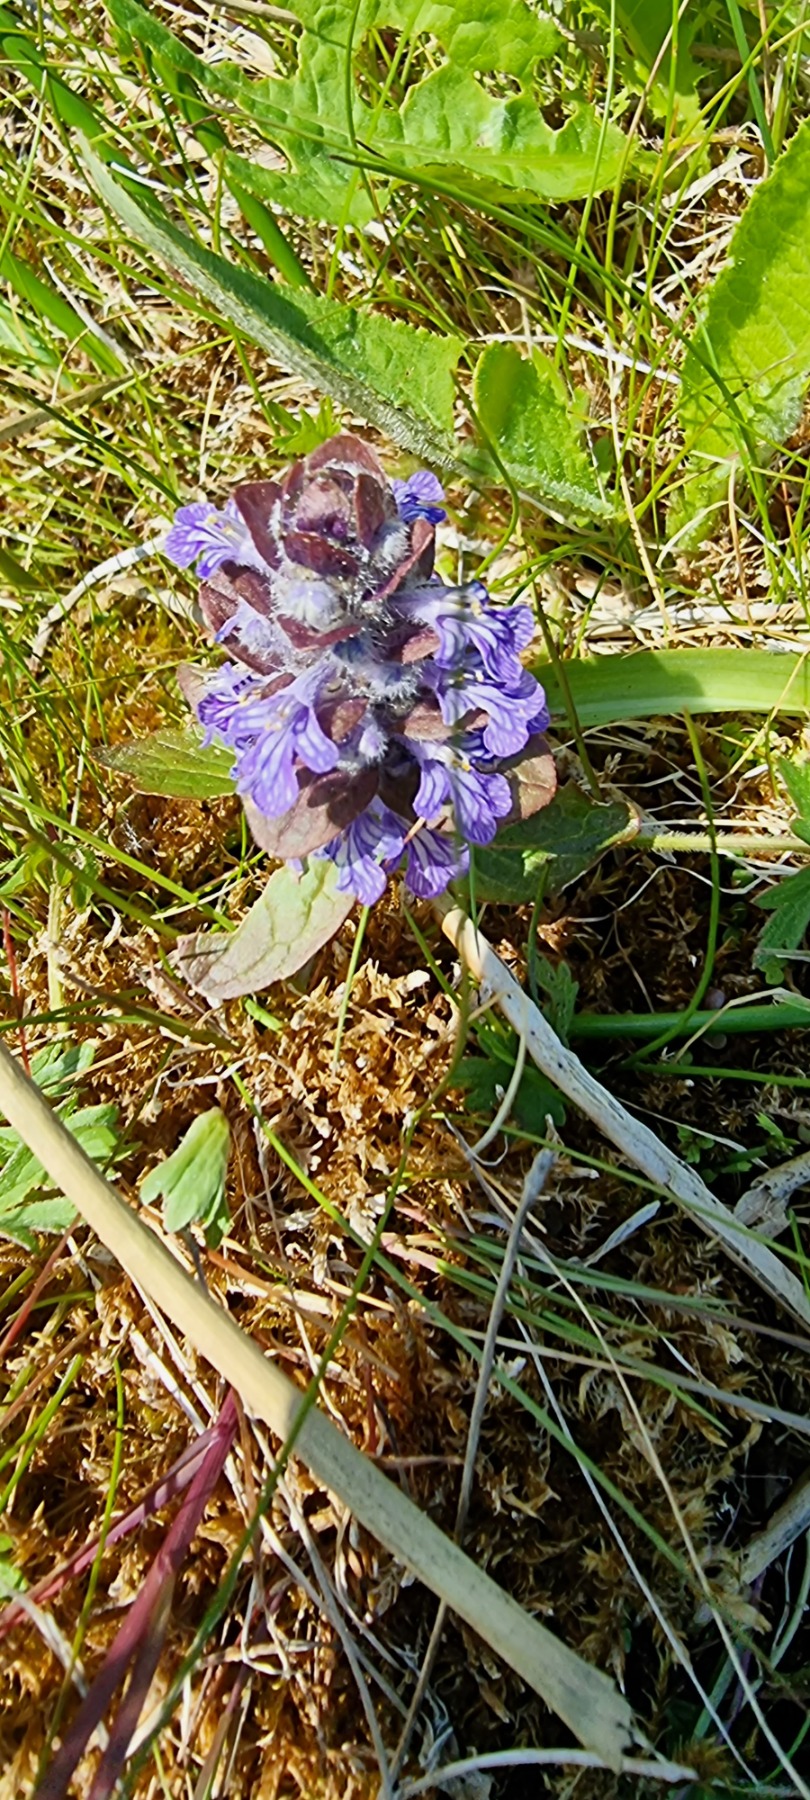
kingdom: Plantae
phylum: Tracheophyta
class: Magnoliopsida
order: Lamiales
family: Lamiaceae
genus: Ajuga
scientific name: Ajuga reptans
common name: Krybende læbeløs
